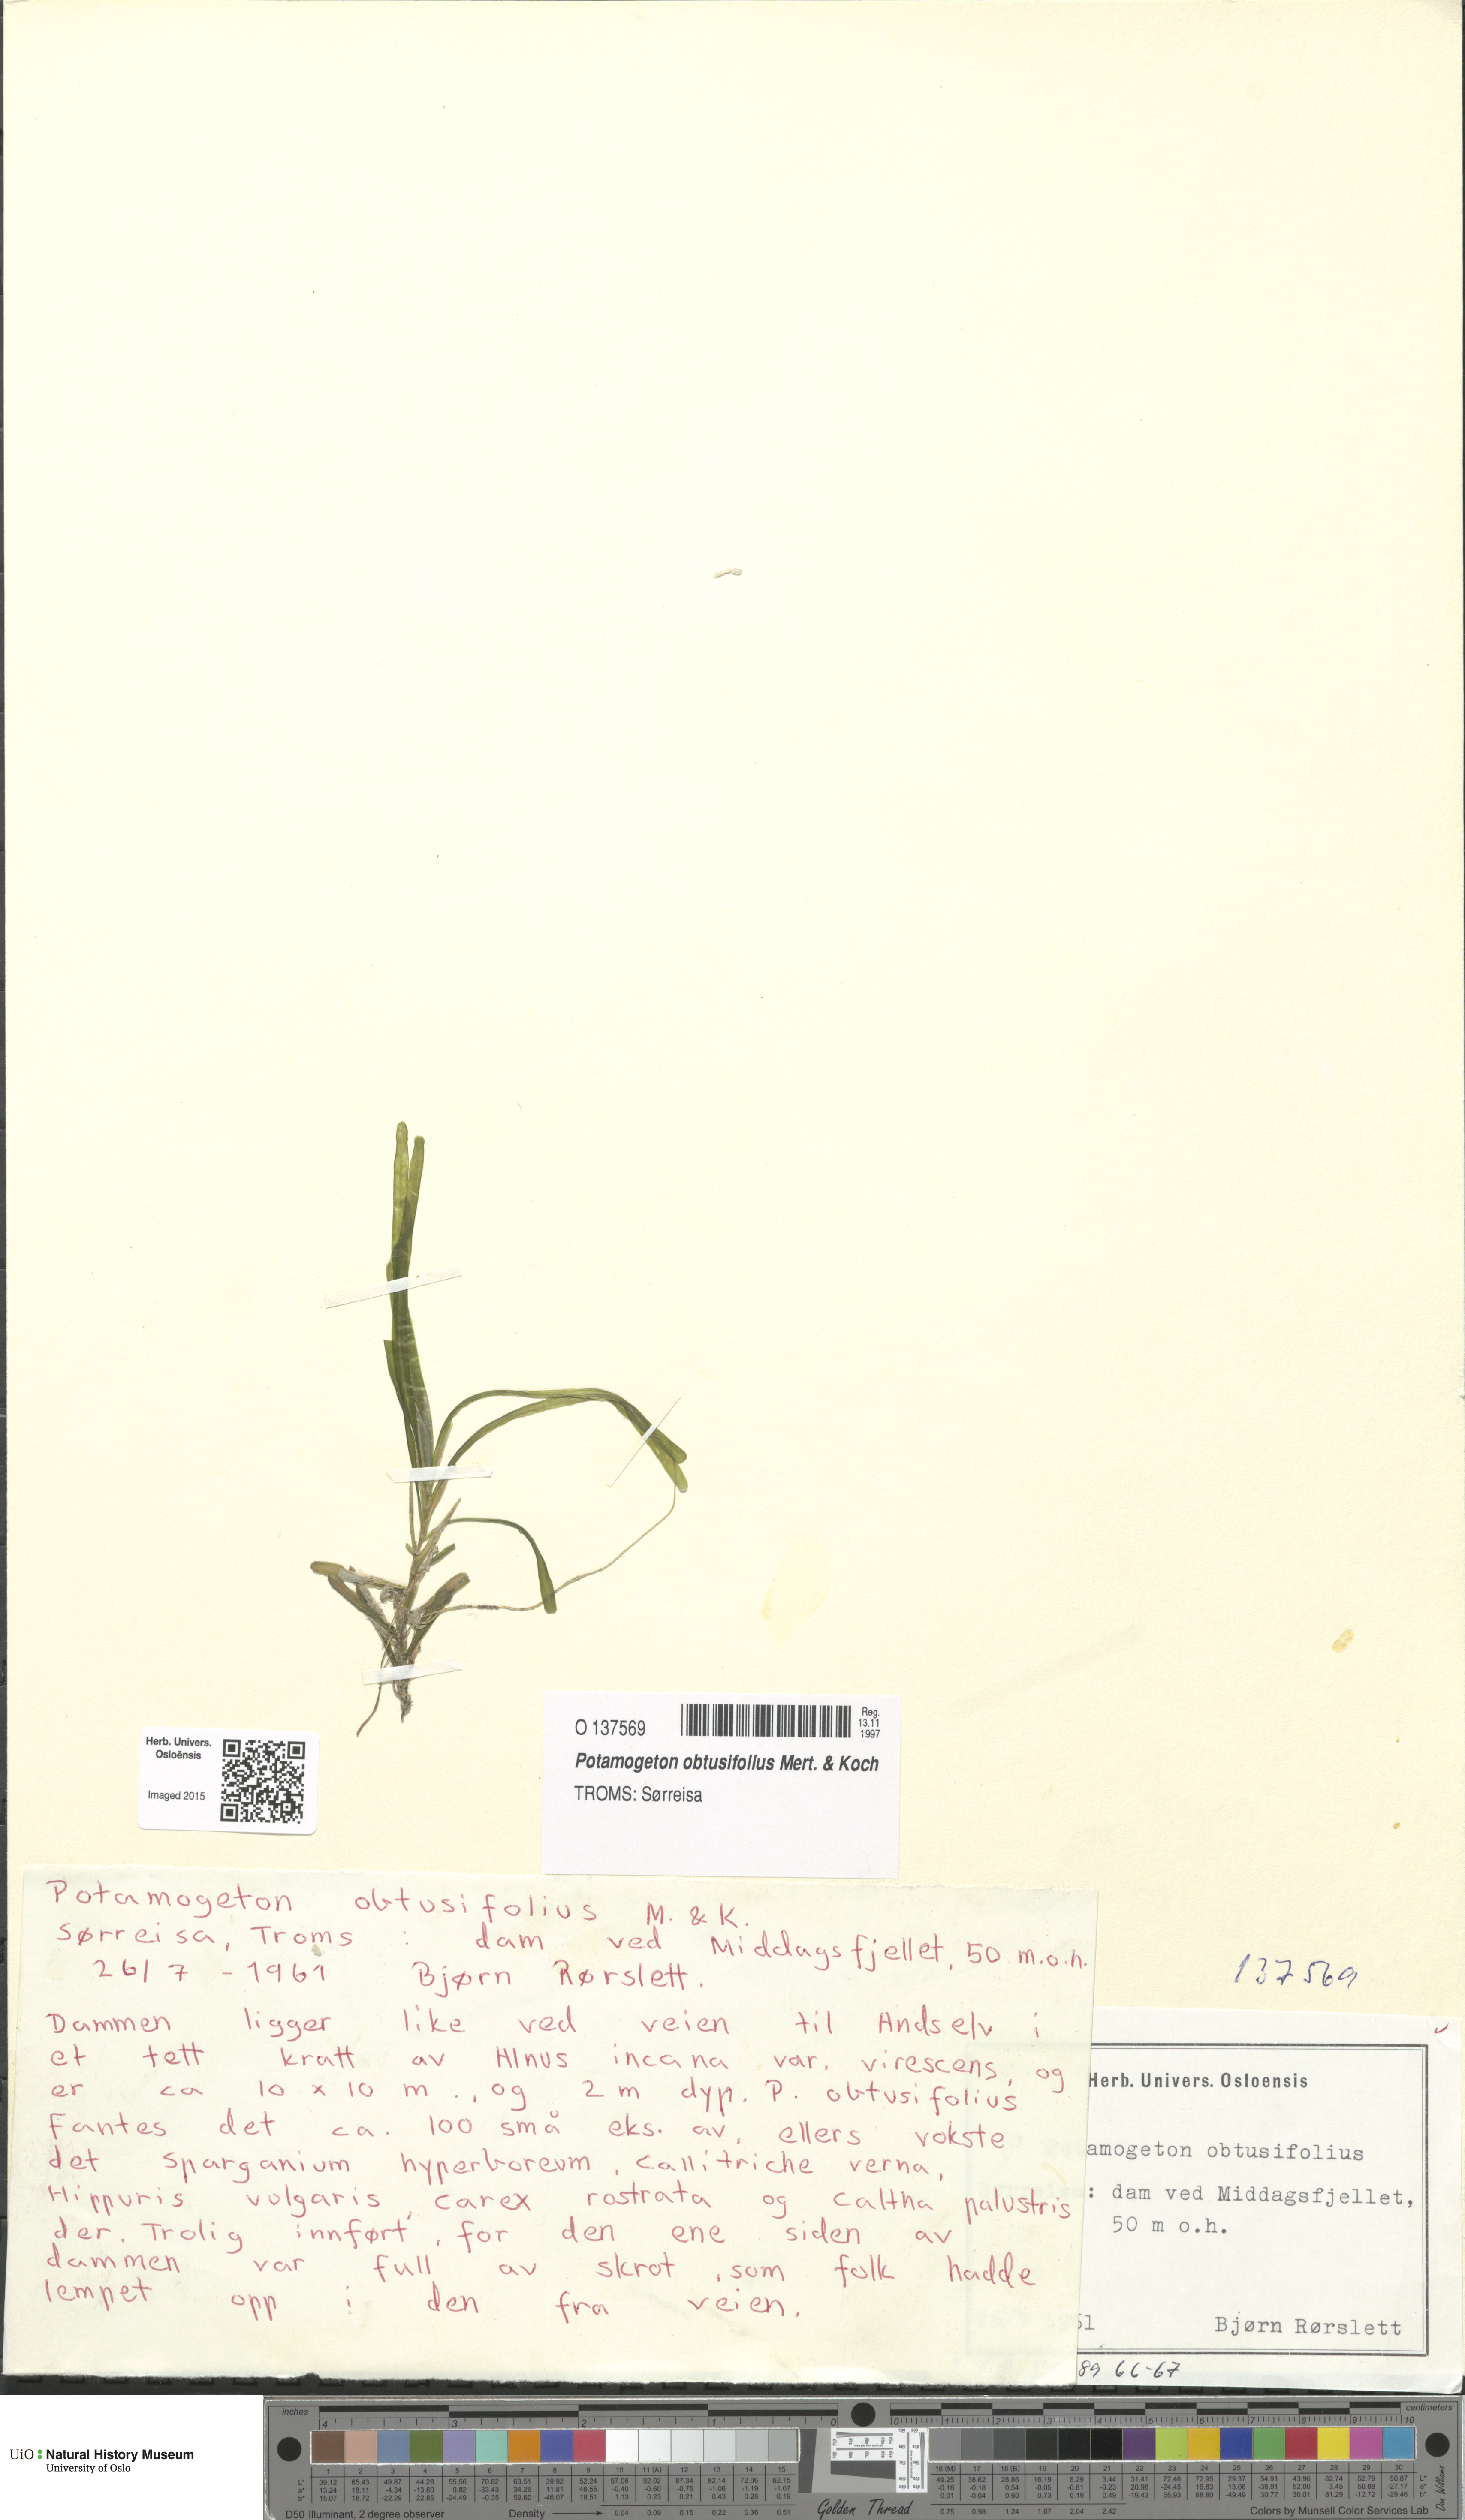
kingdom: Plantae
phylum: Tracheophyta
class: Liliopsida
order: Alismatales
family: Potamogetonaceae
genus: Potamogeton
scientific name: Potamogeton obtusifolius
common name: Blunt-leaved pondweed
